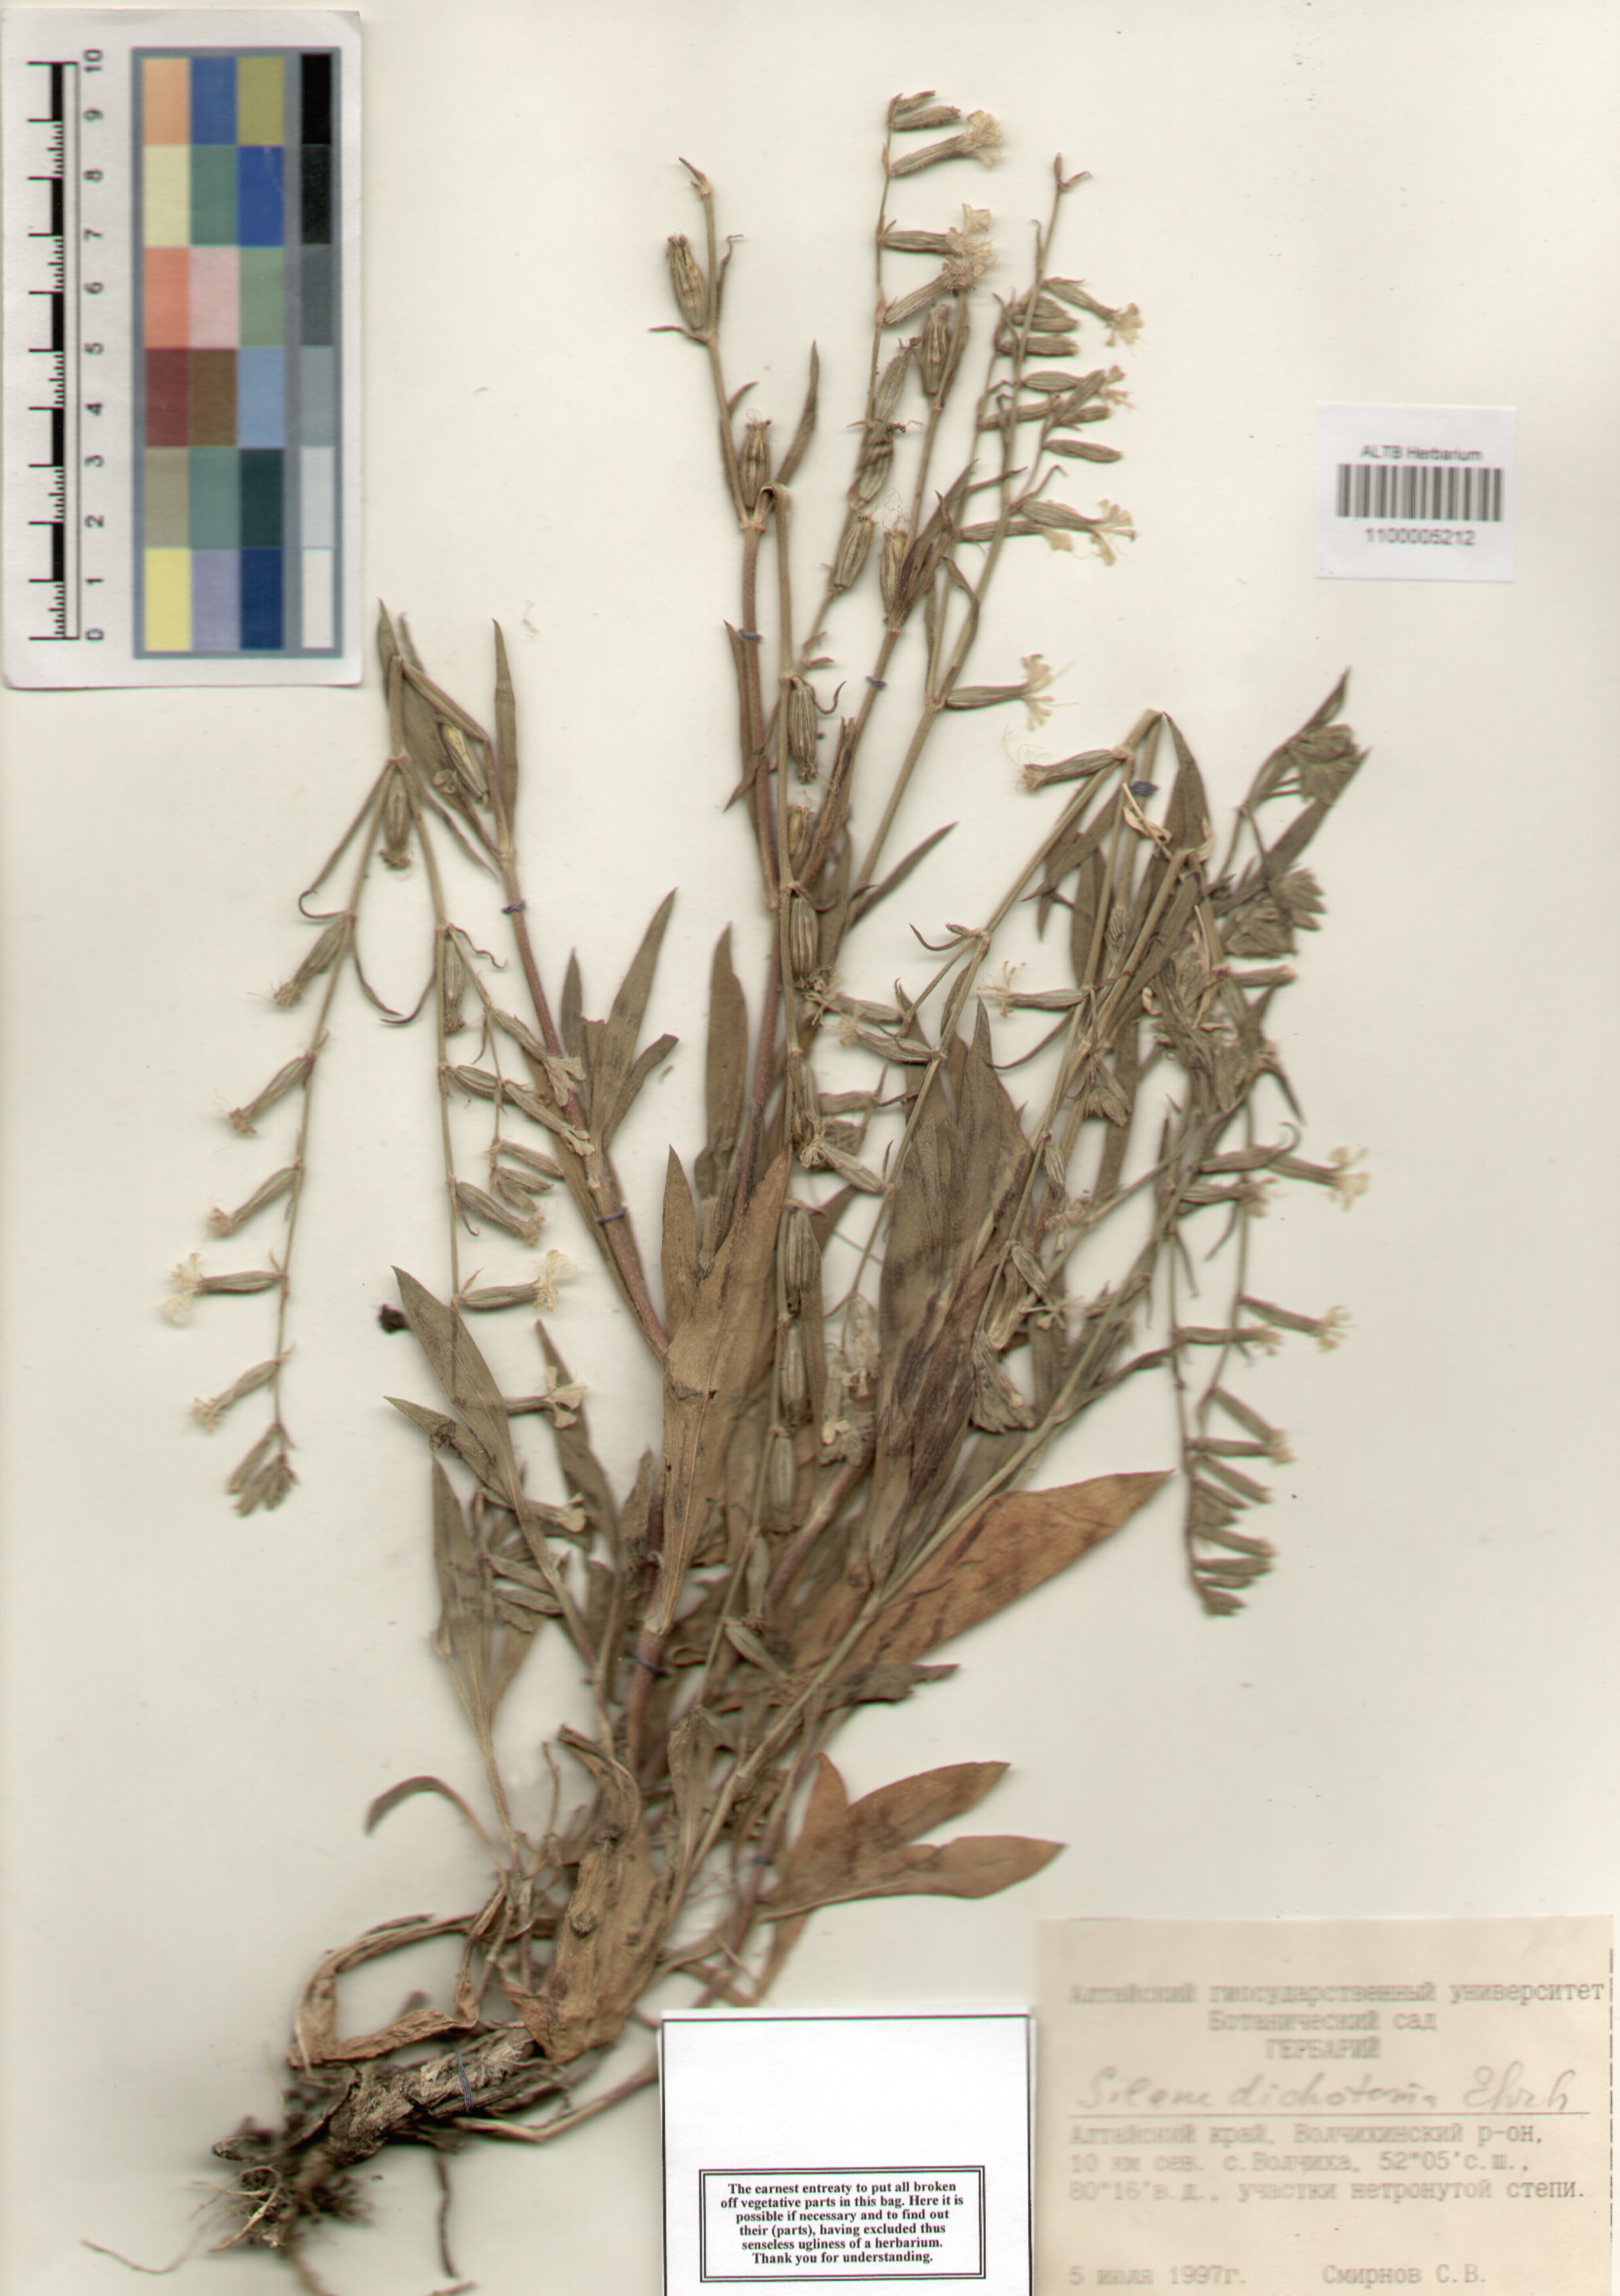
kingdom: Plantae
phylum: Tracheophyta
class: Magnoliopsida
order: Caryophyllales
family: Caryophyllaceae
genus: Silene
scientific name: Silene dichotoma
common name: Forked catchfly
